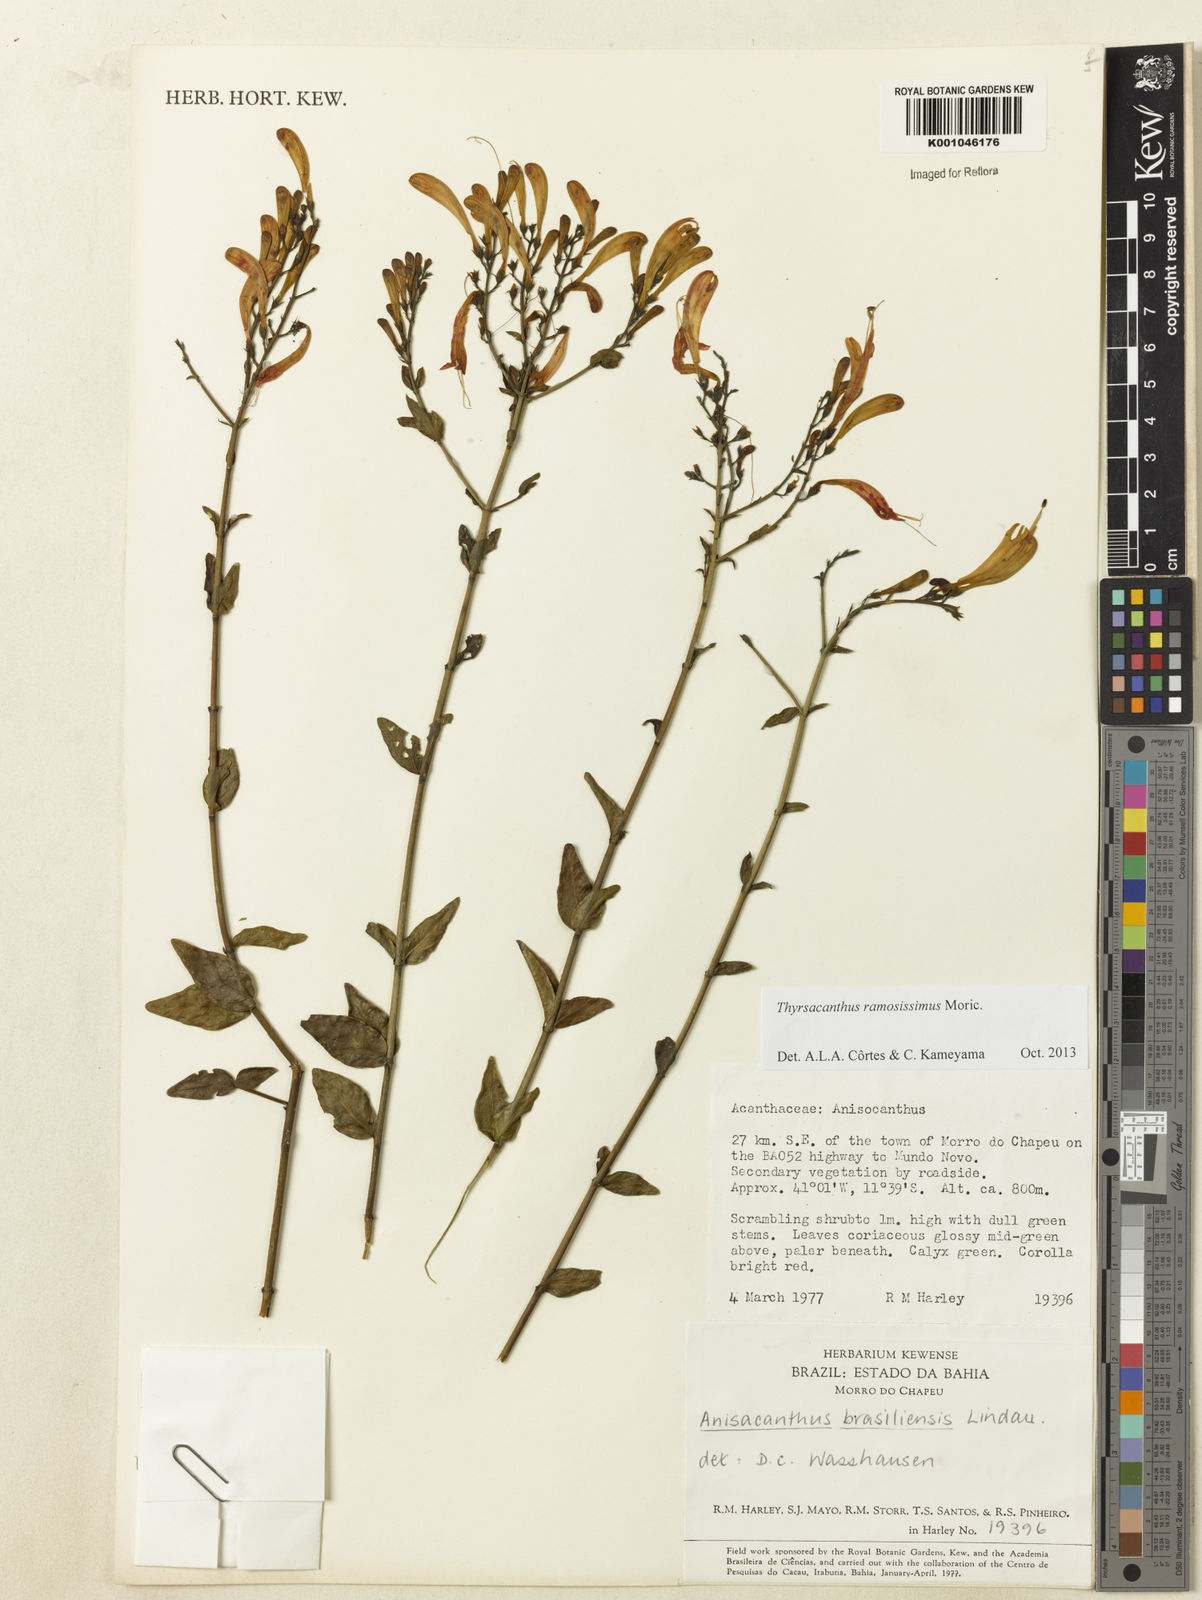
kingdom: Plantae
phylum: Tracheophyta
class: Magnoliopsida
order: Lamiales
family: Acanthaceae
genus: Thyrsacanthus
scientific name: Thyrsacanthus ramosissimus
